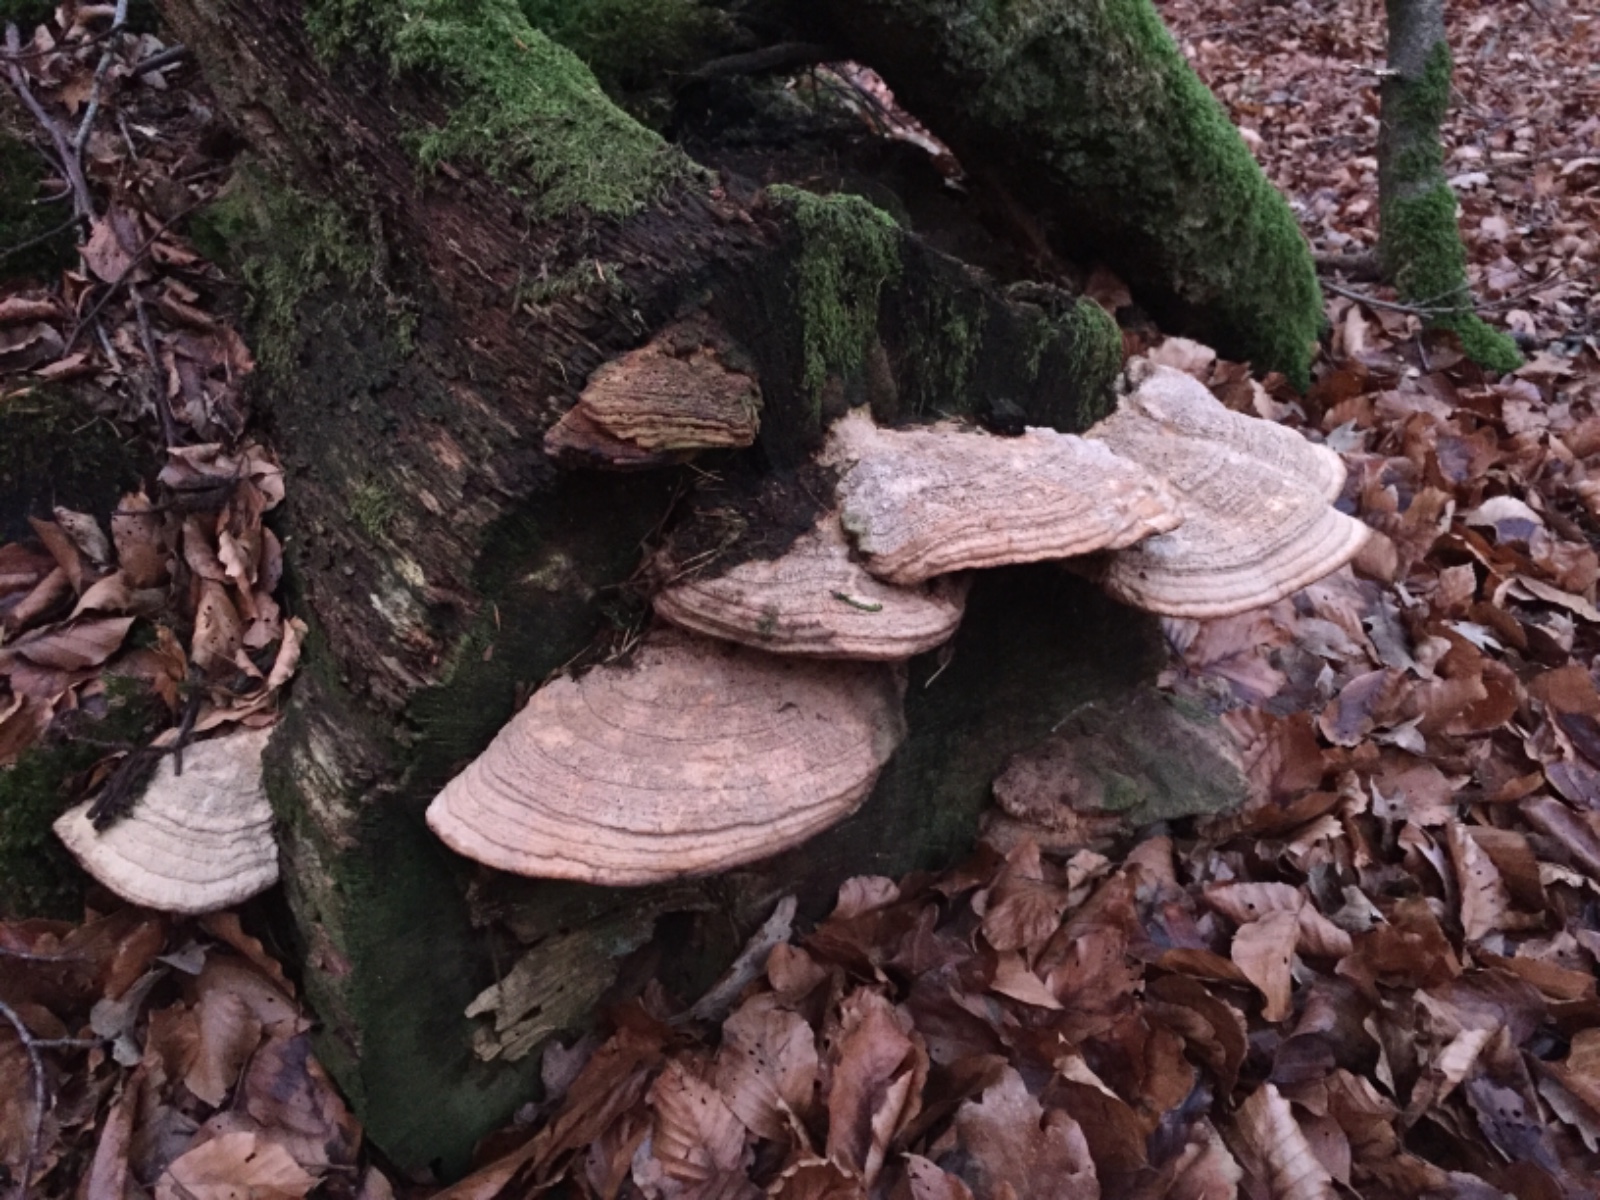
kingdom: Fungi
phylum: Basidiomycota
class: Agaricomycetes
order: Polyporales
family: Fomitopsidaceae
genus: Daedalea
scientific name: Daedalea quercina
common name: ege-labyrintsvamp
